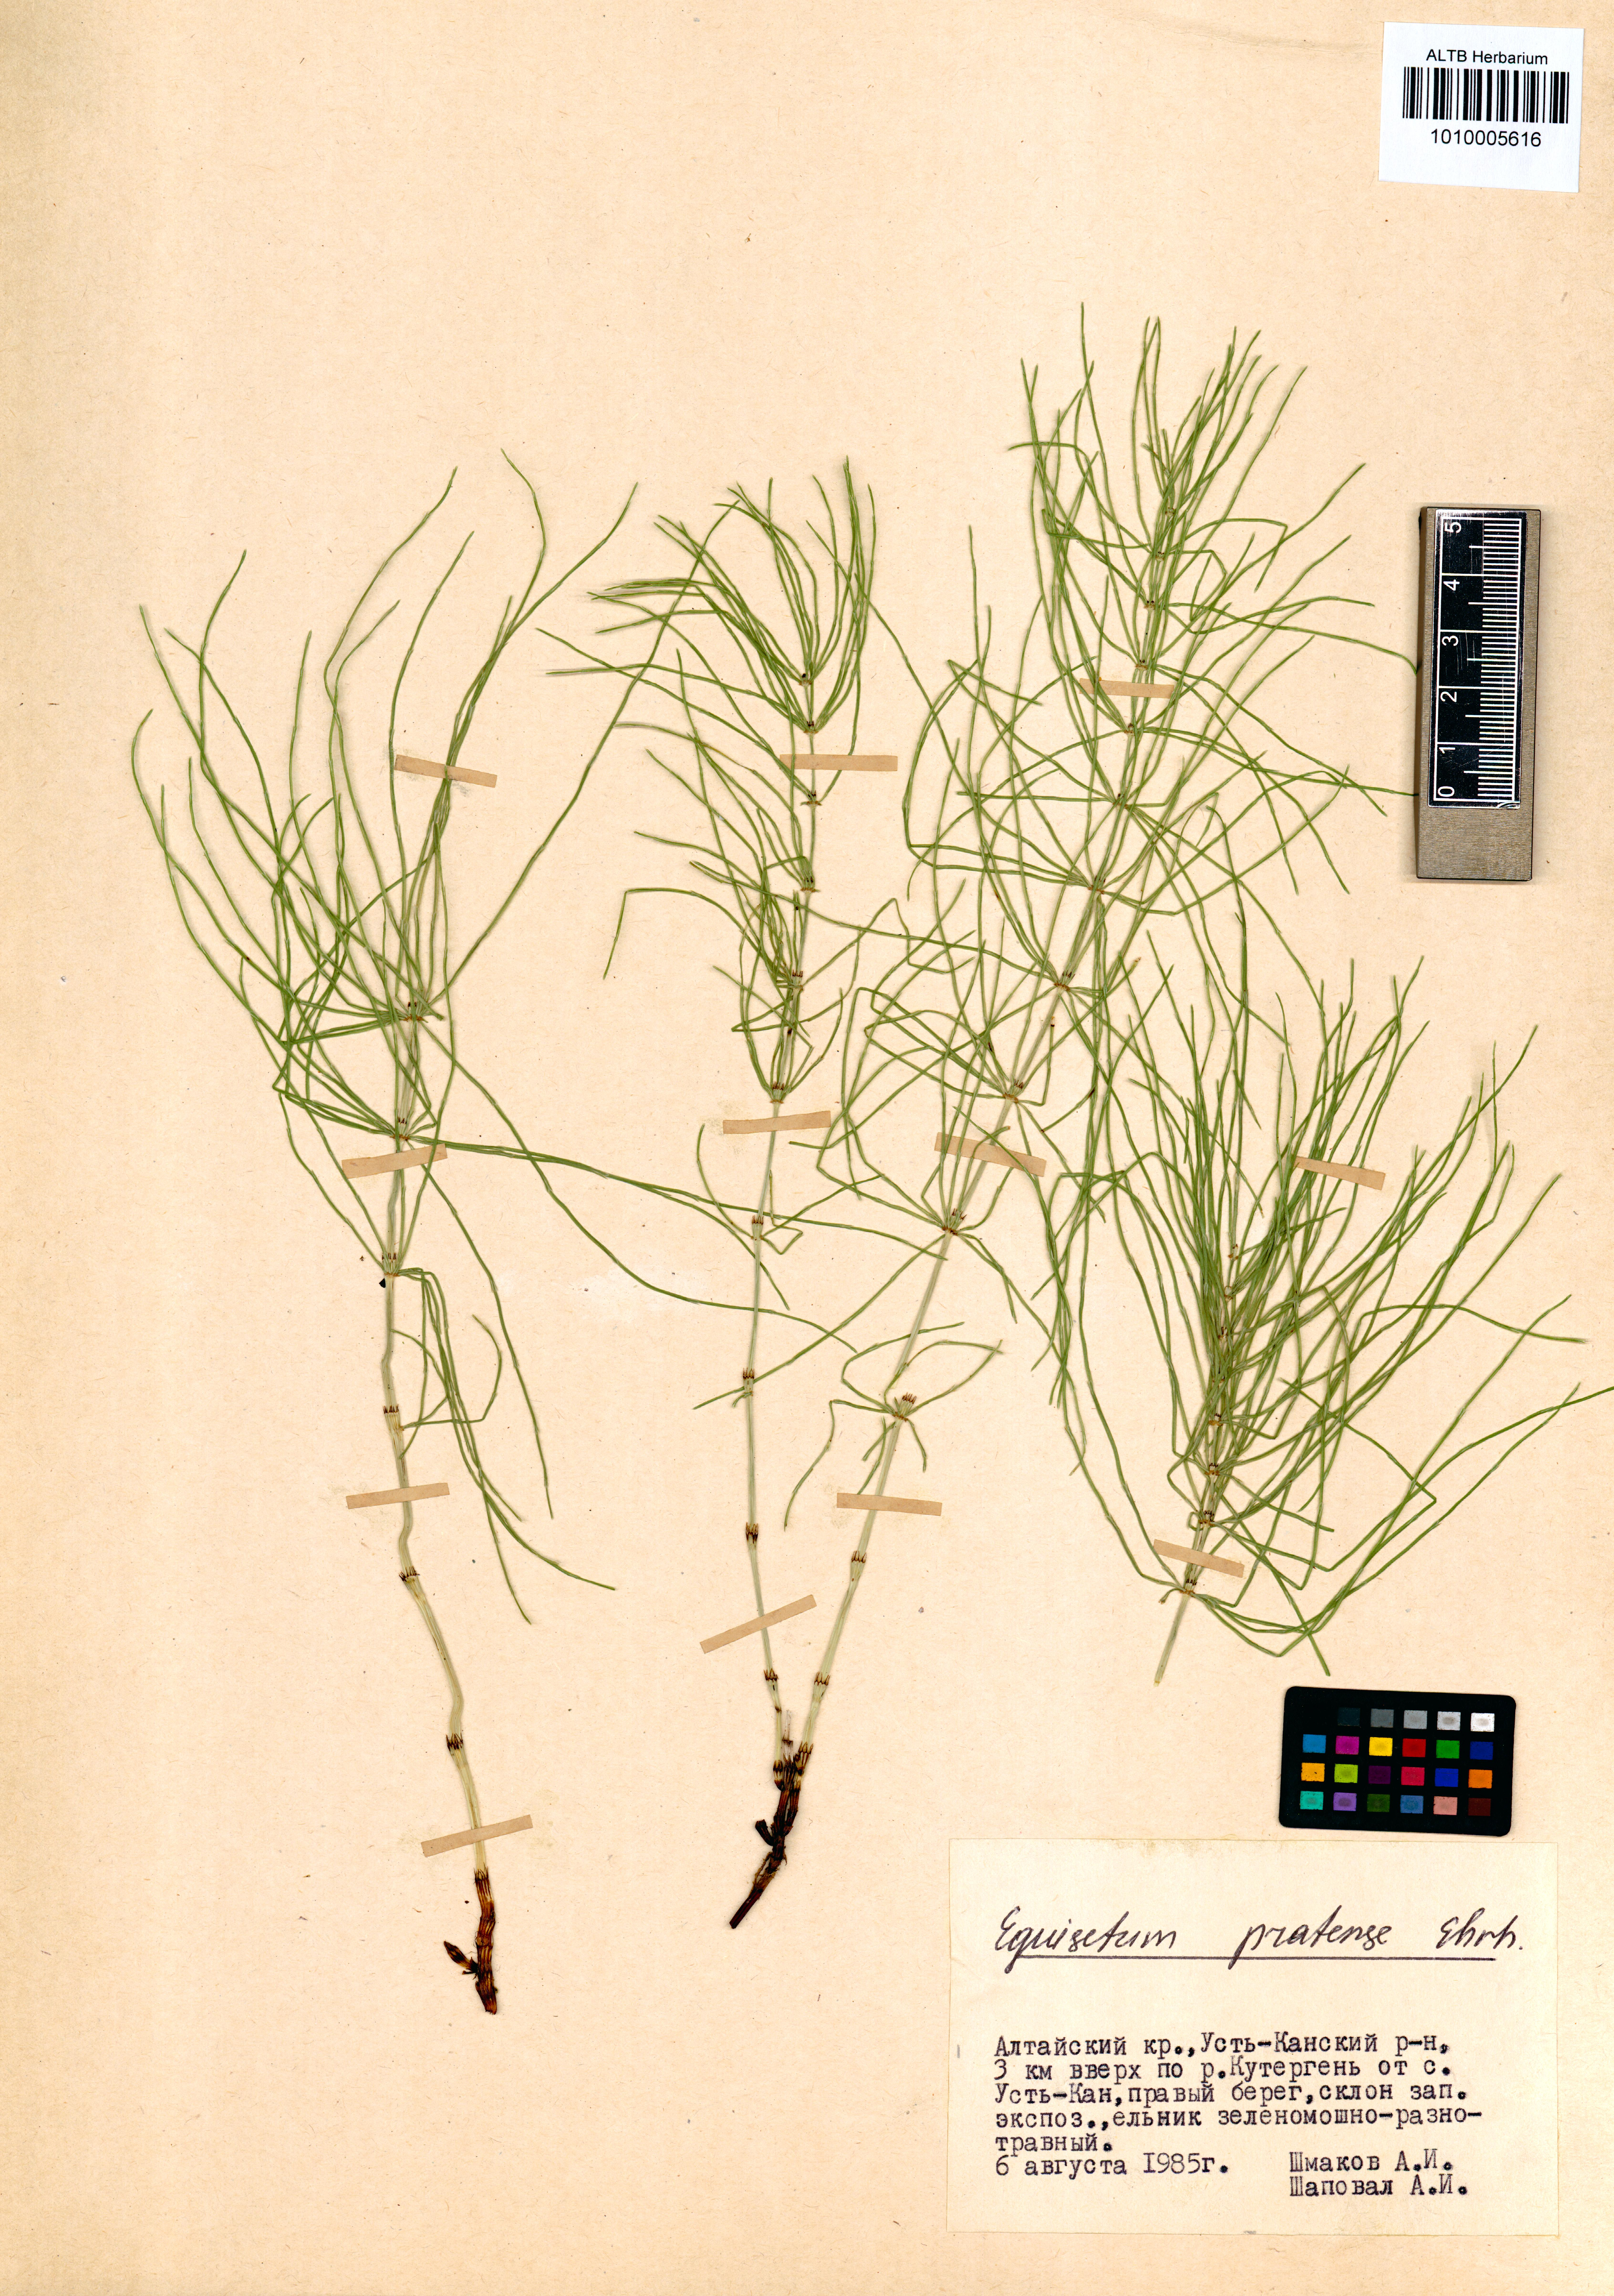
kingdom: Plantae
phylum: Tracheophyta
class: Polypodiopsida
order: Equisetales
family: Equisetaceae
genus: Equisetum
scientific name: Equisetum pratense
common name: Meadow horsetail
